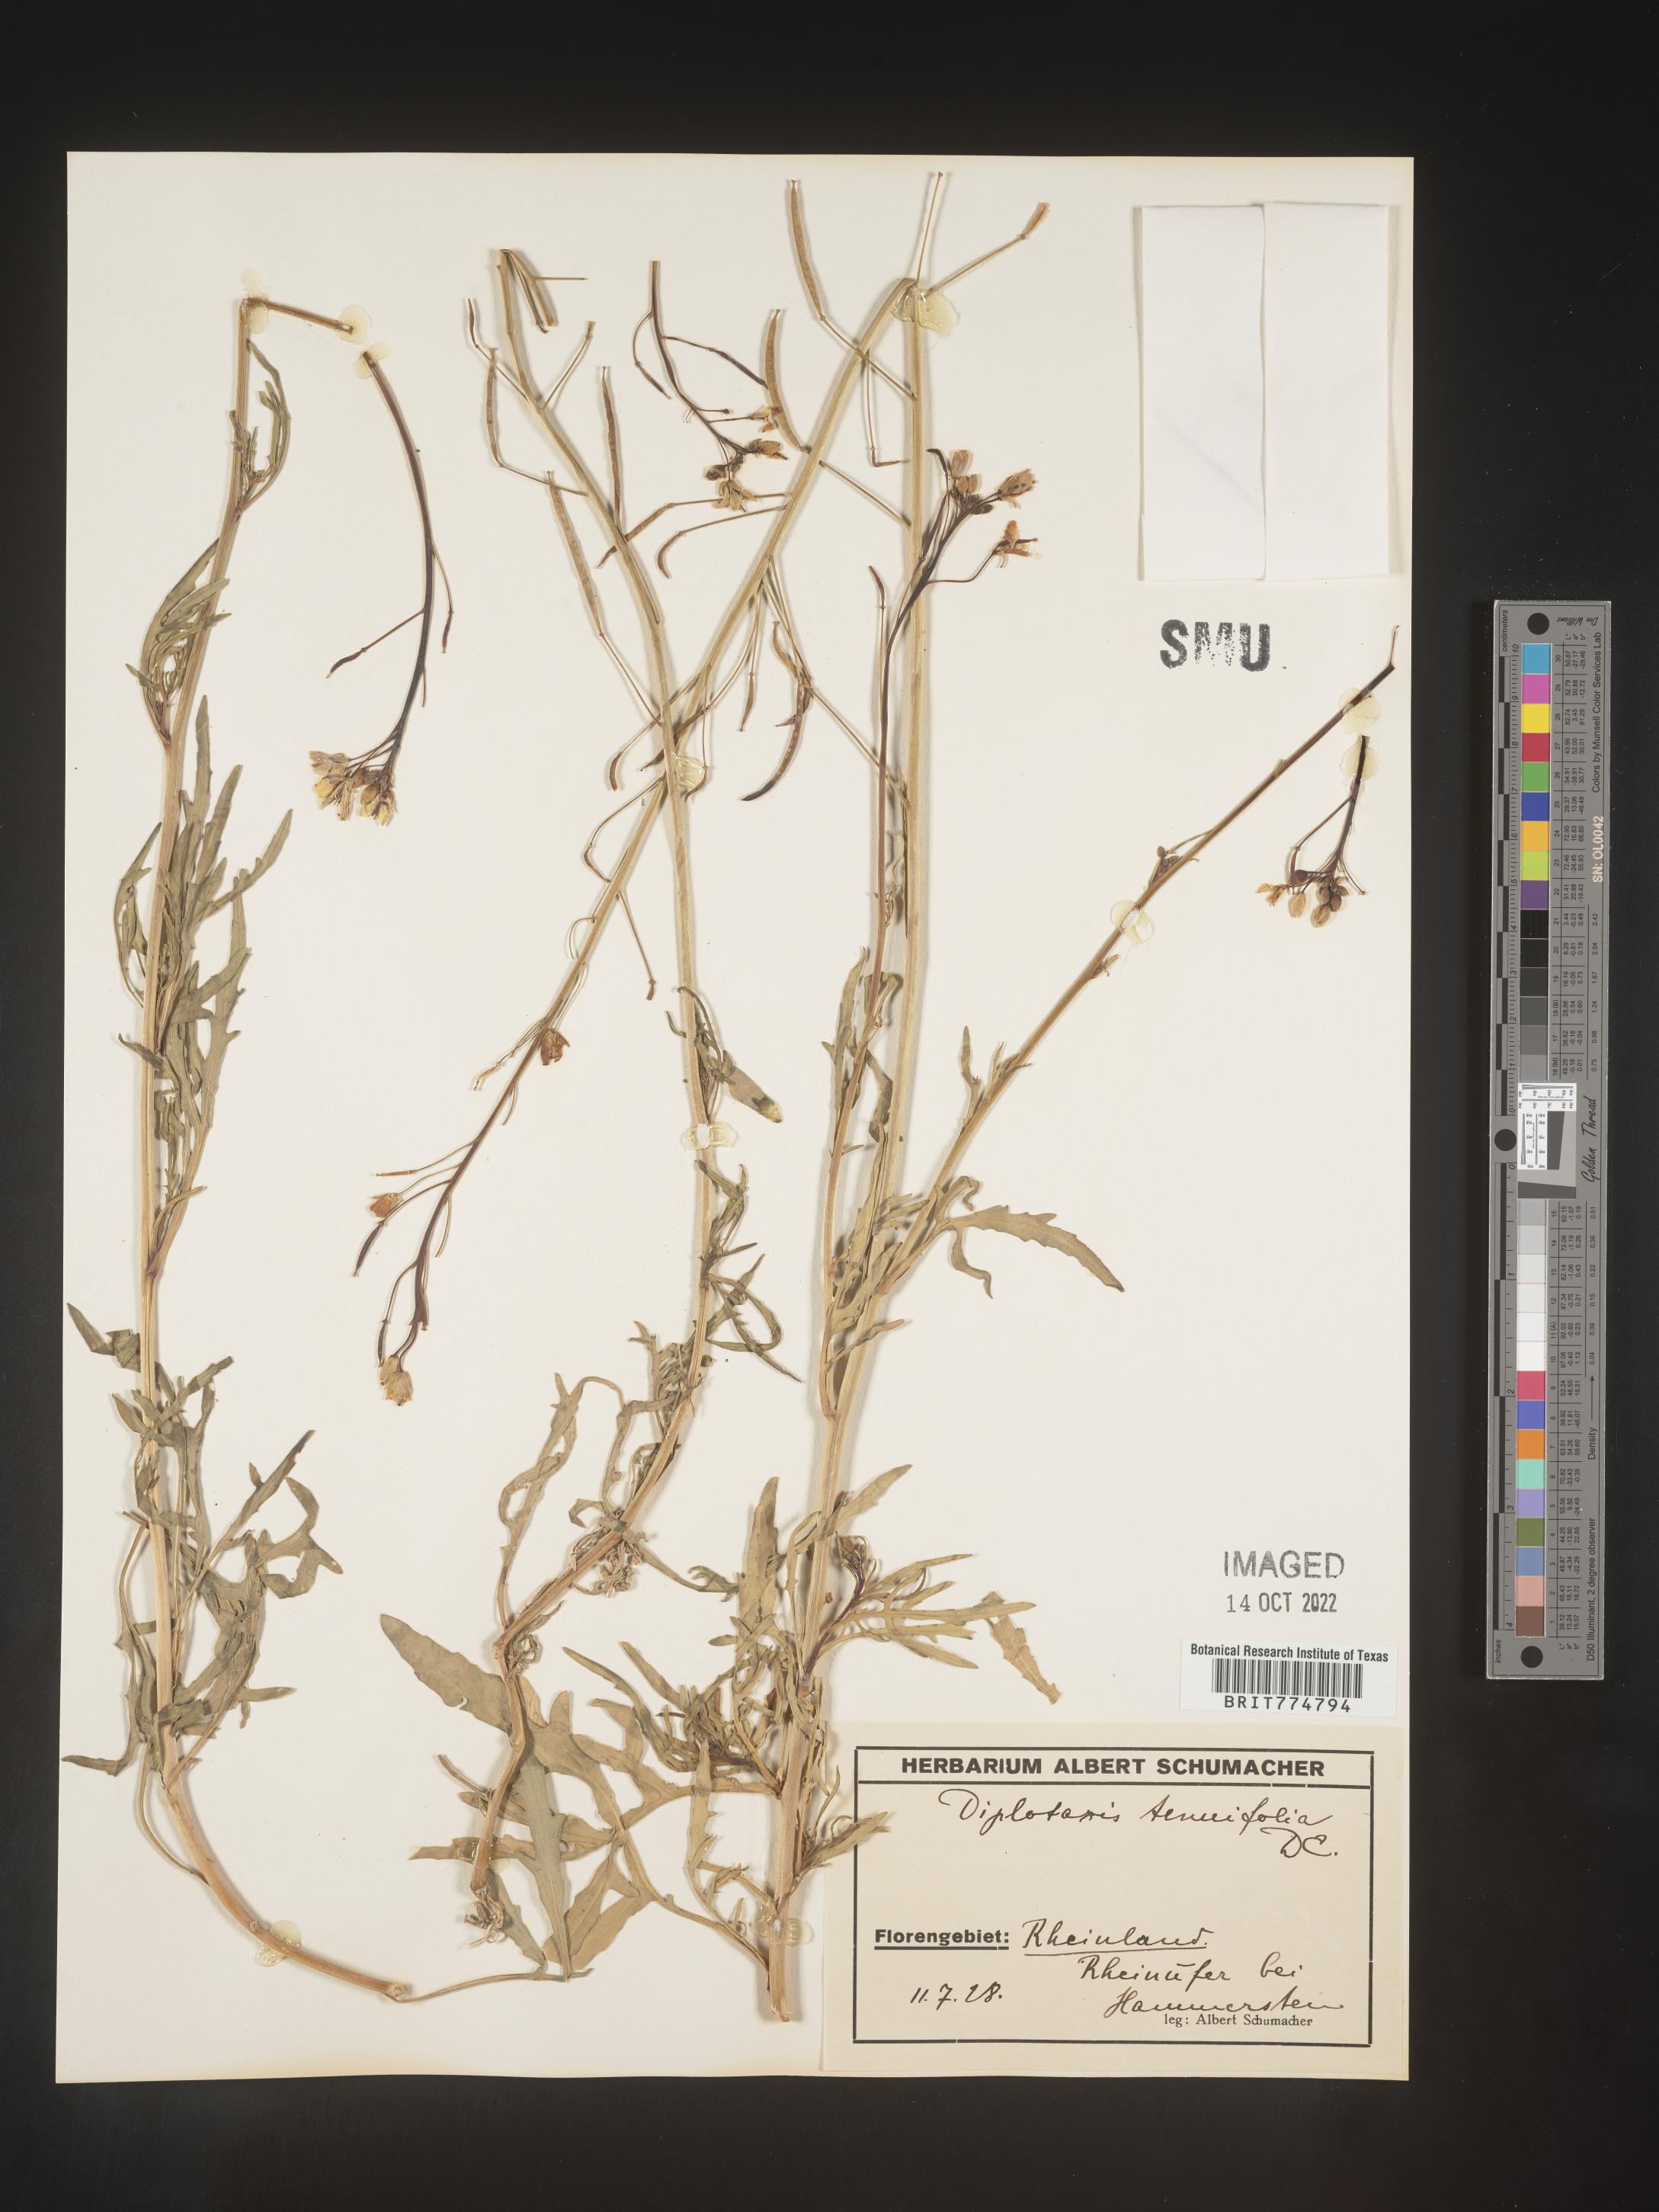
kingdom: Plantae
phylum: Tracheophyta
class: Magnoliopsida
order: Brassicales
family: Brassicaceae
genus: Diplotaxis
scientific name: Diplotaxis
